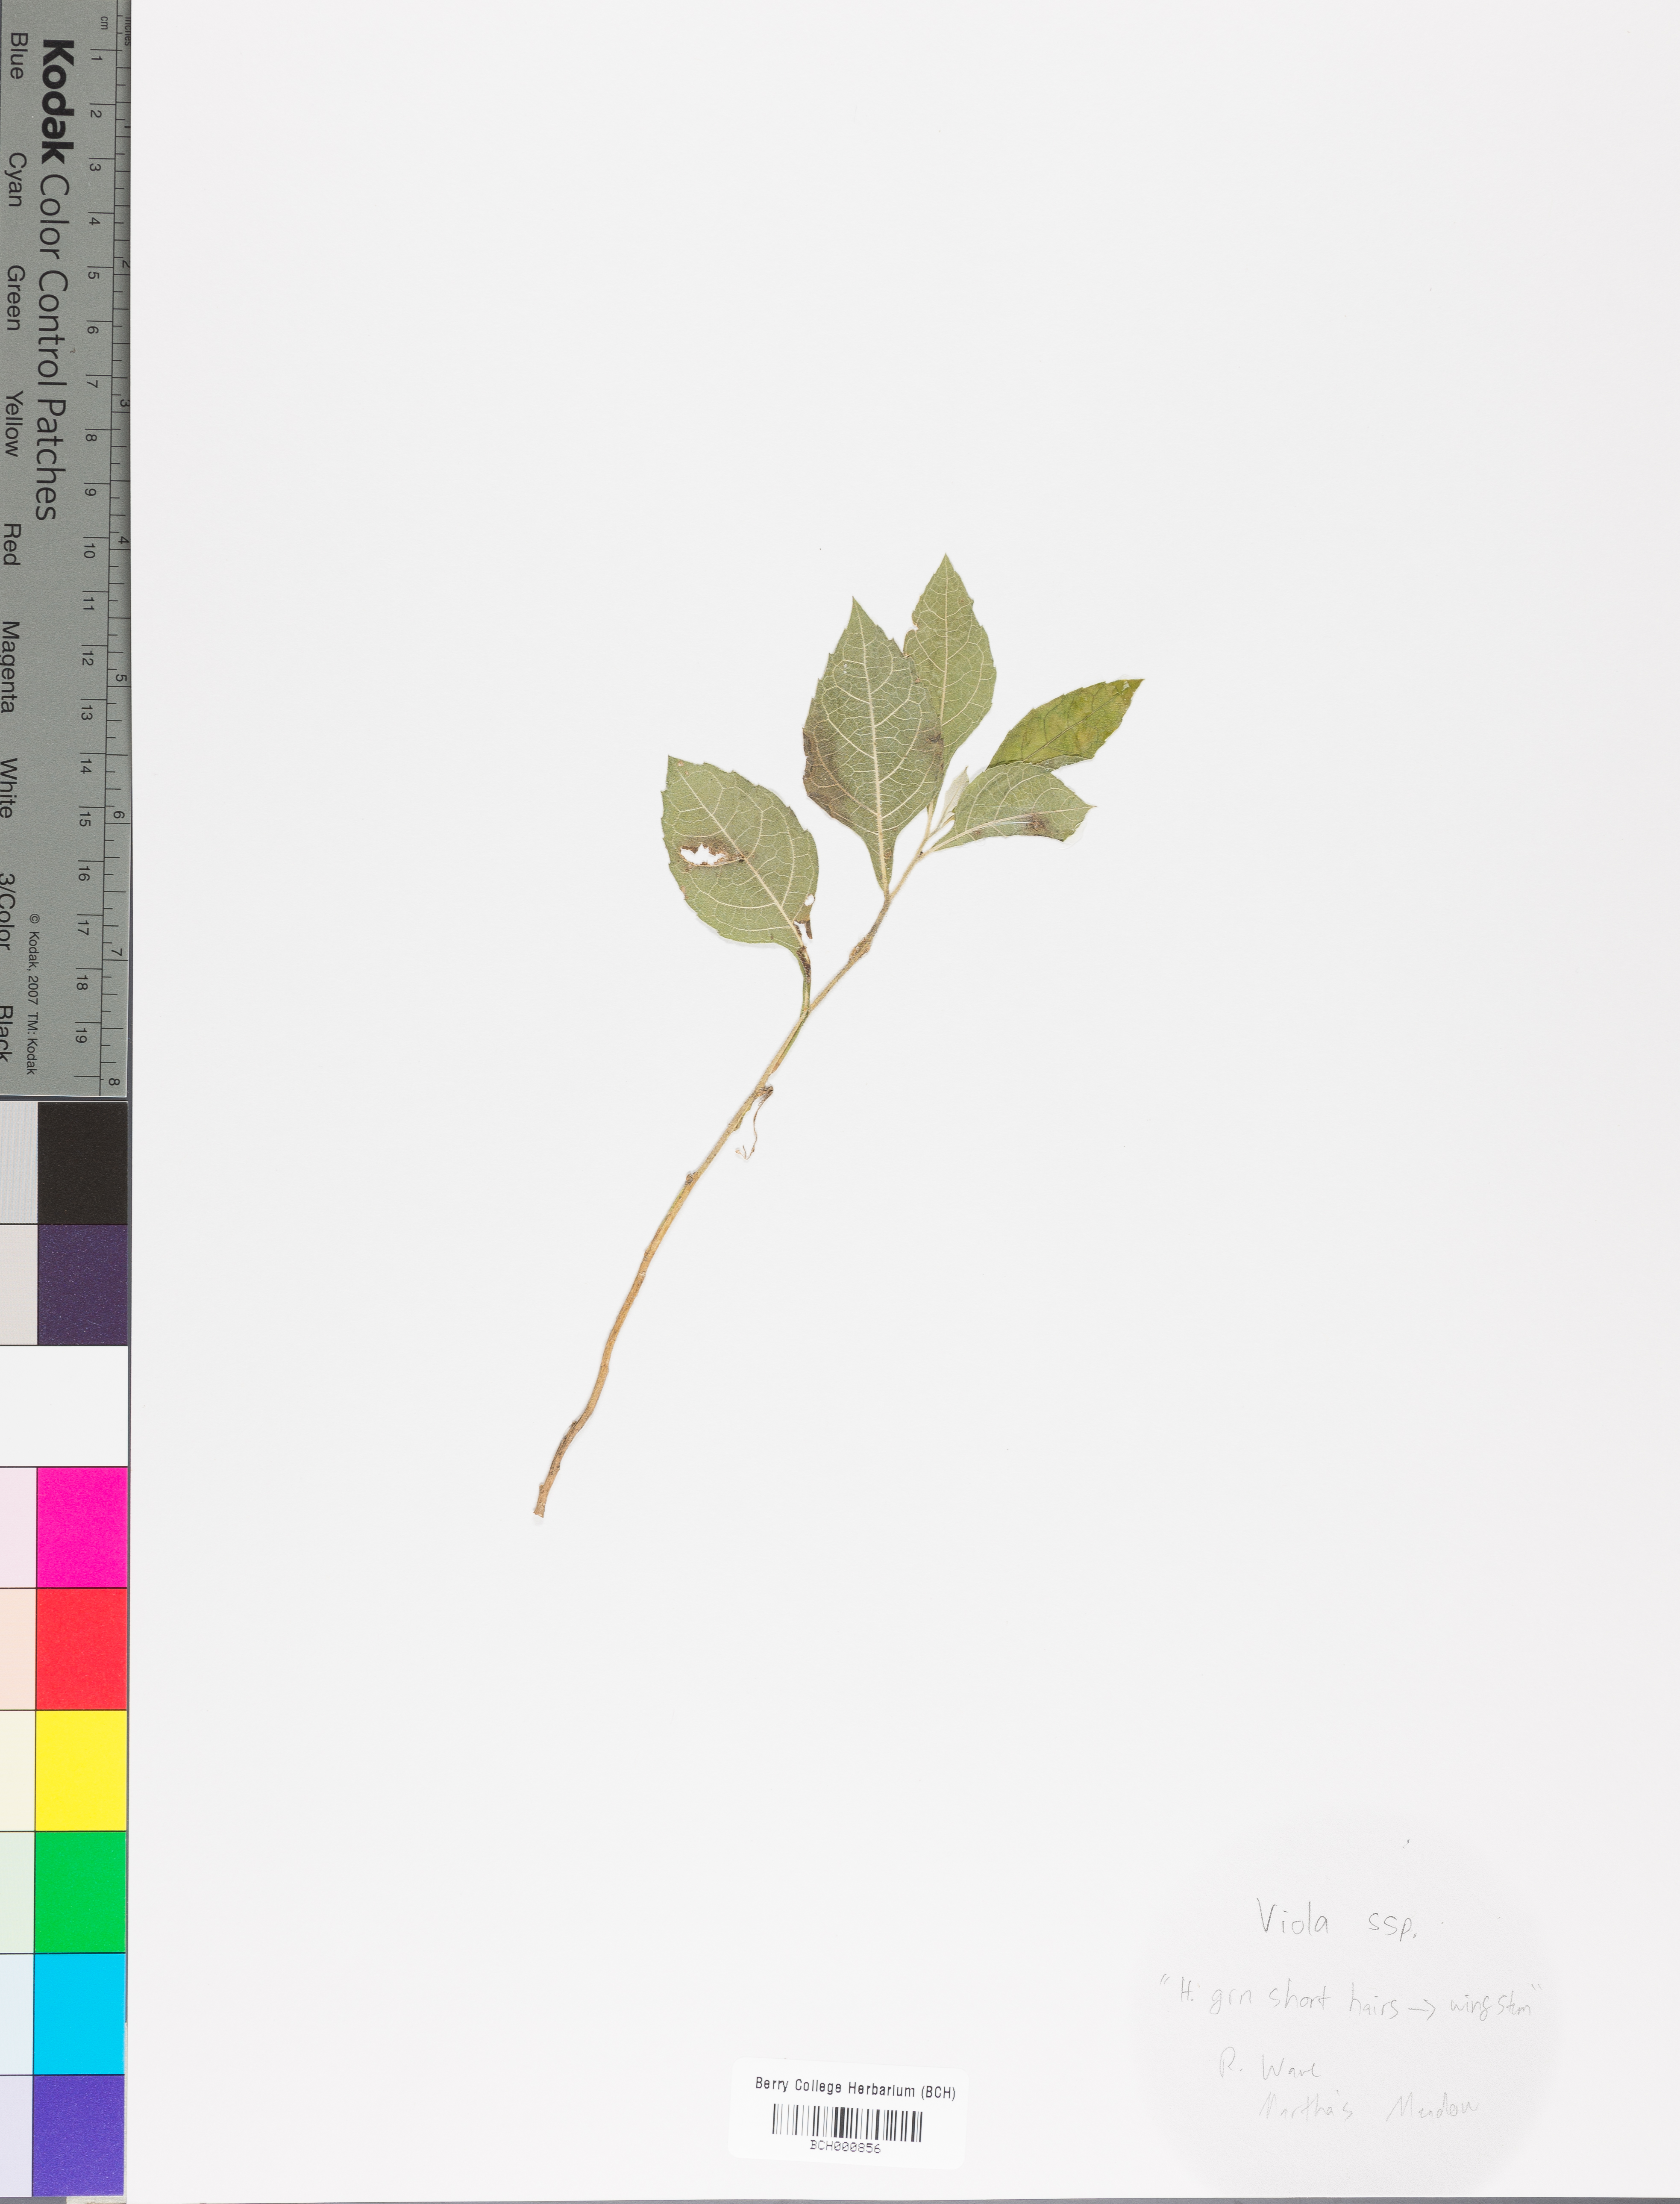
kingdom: Plantae
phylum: Tracheophyta
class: Magnoliopsida
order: Malpighiales
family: Violaceae
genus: Viola
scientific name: Viola
